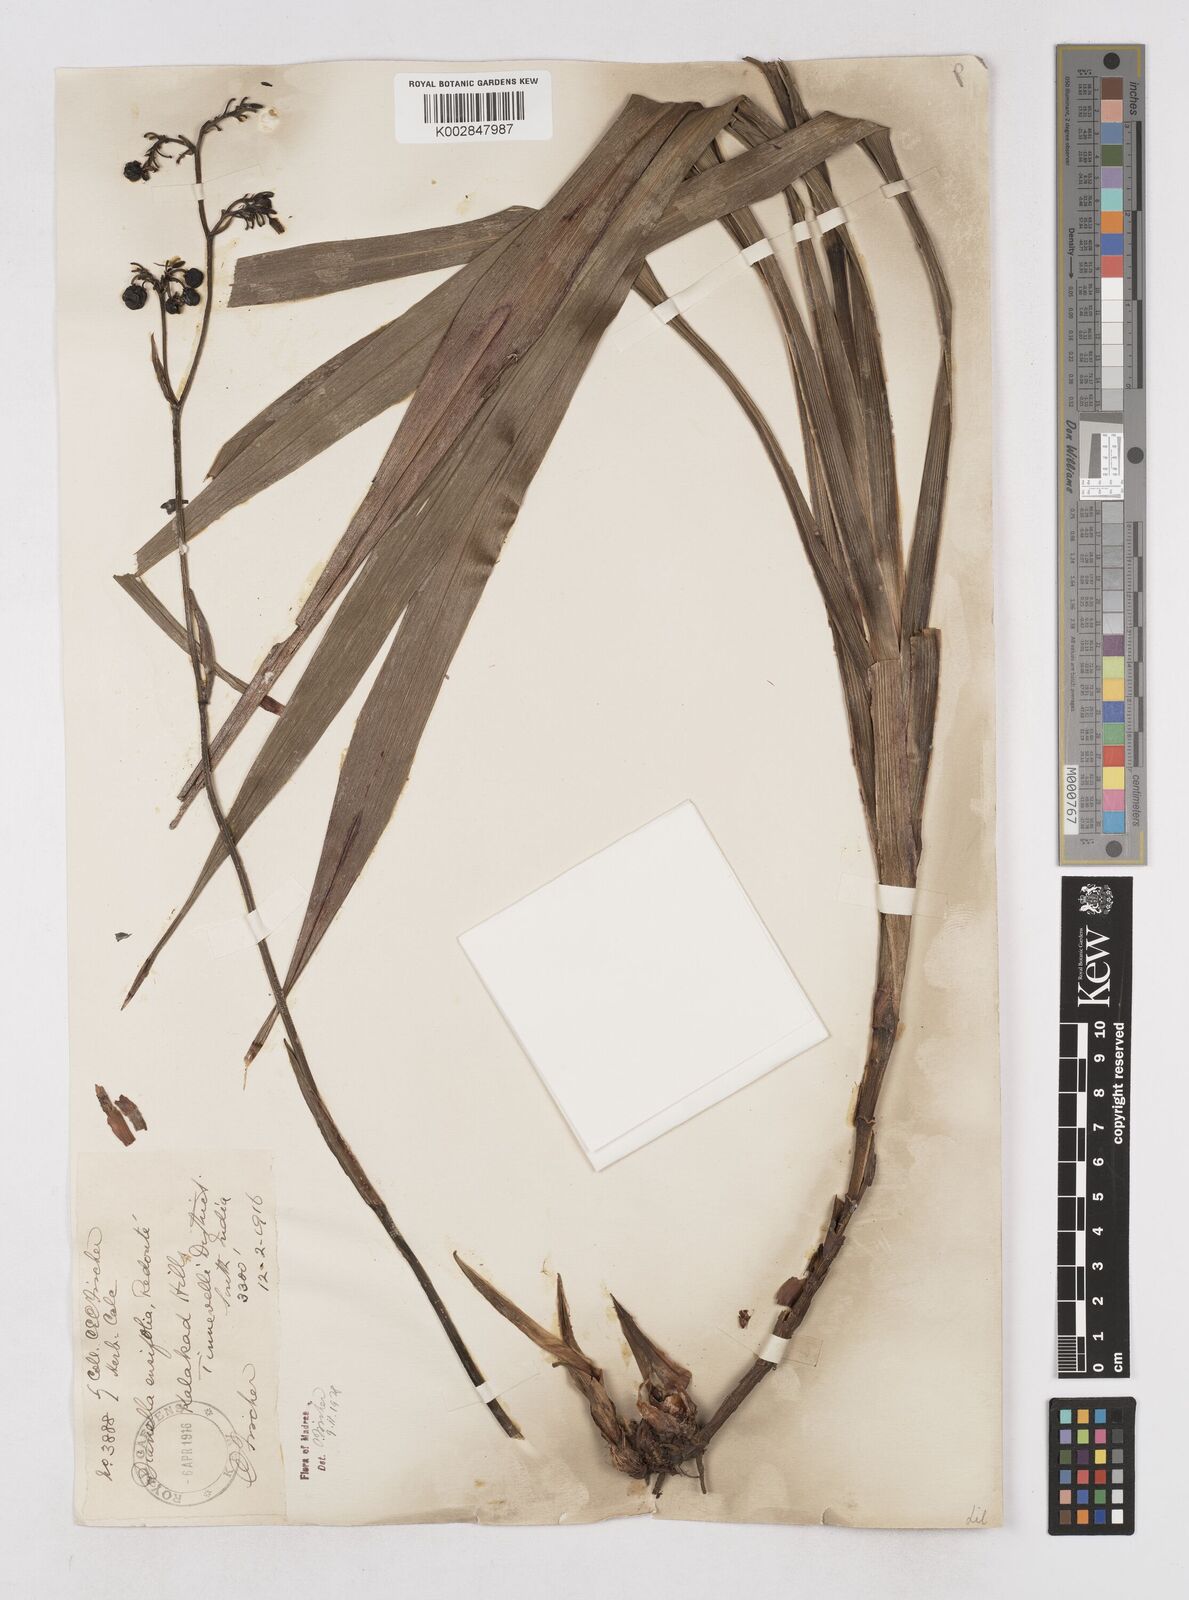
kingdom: Plantae
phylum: Tracheophyta
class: Liliopsida
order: Asparagales
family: Asphodelaceae
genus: Dianella
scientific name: Dianella ensifolia
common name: New zealand lilyplant
